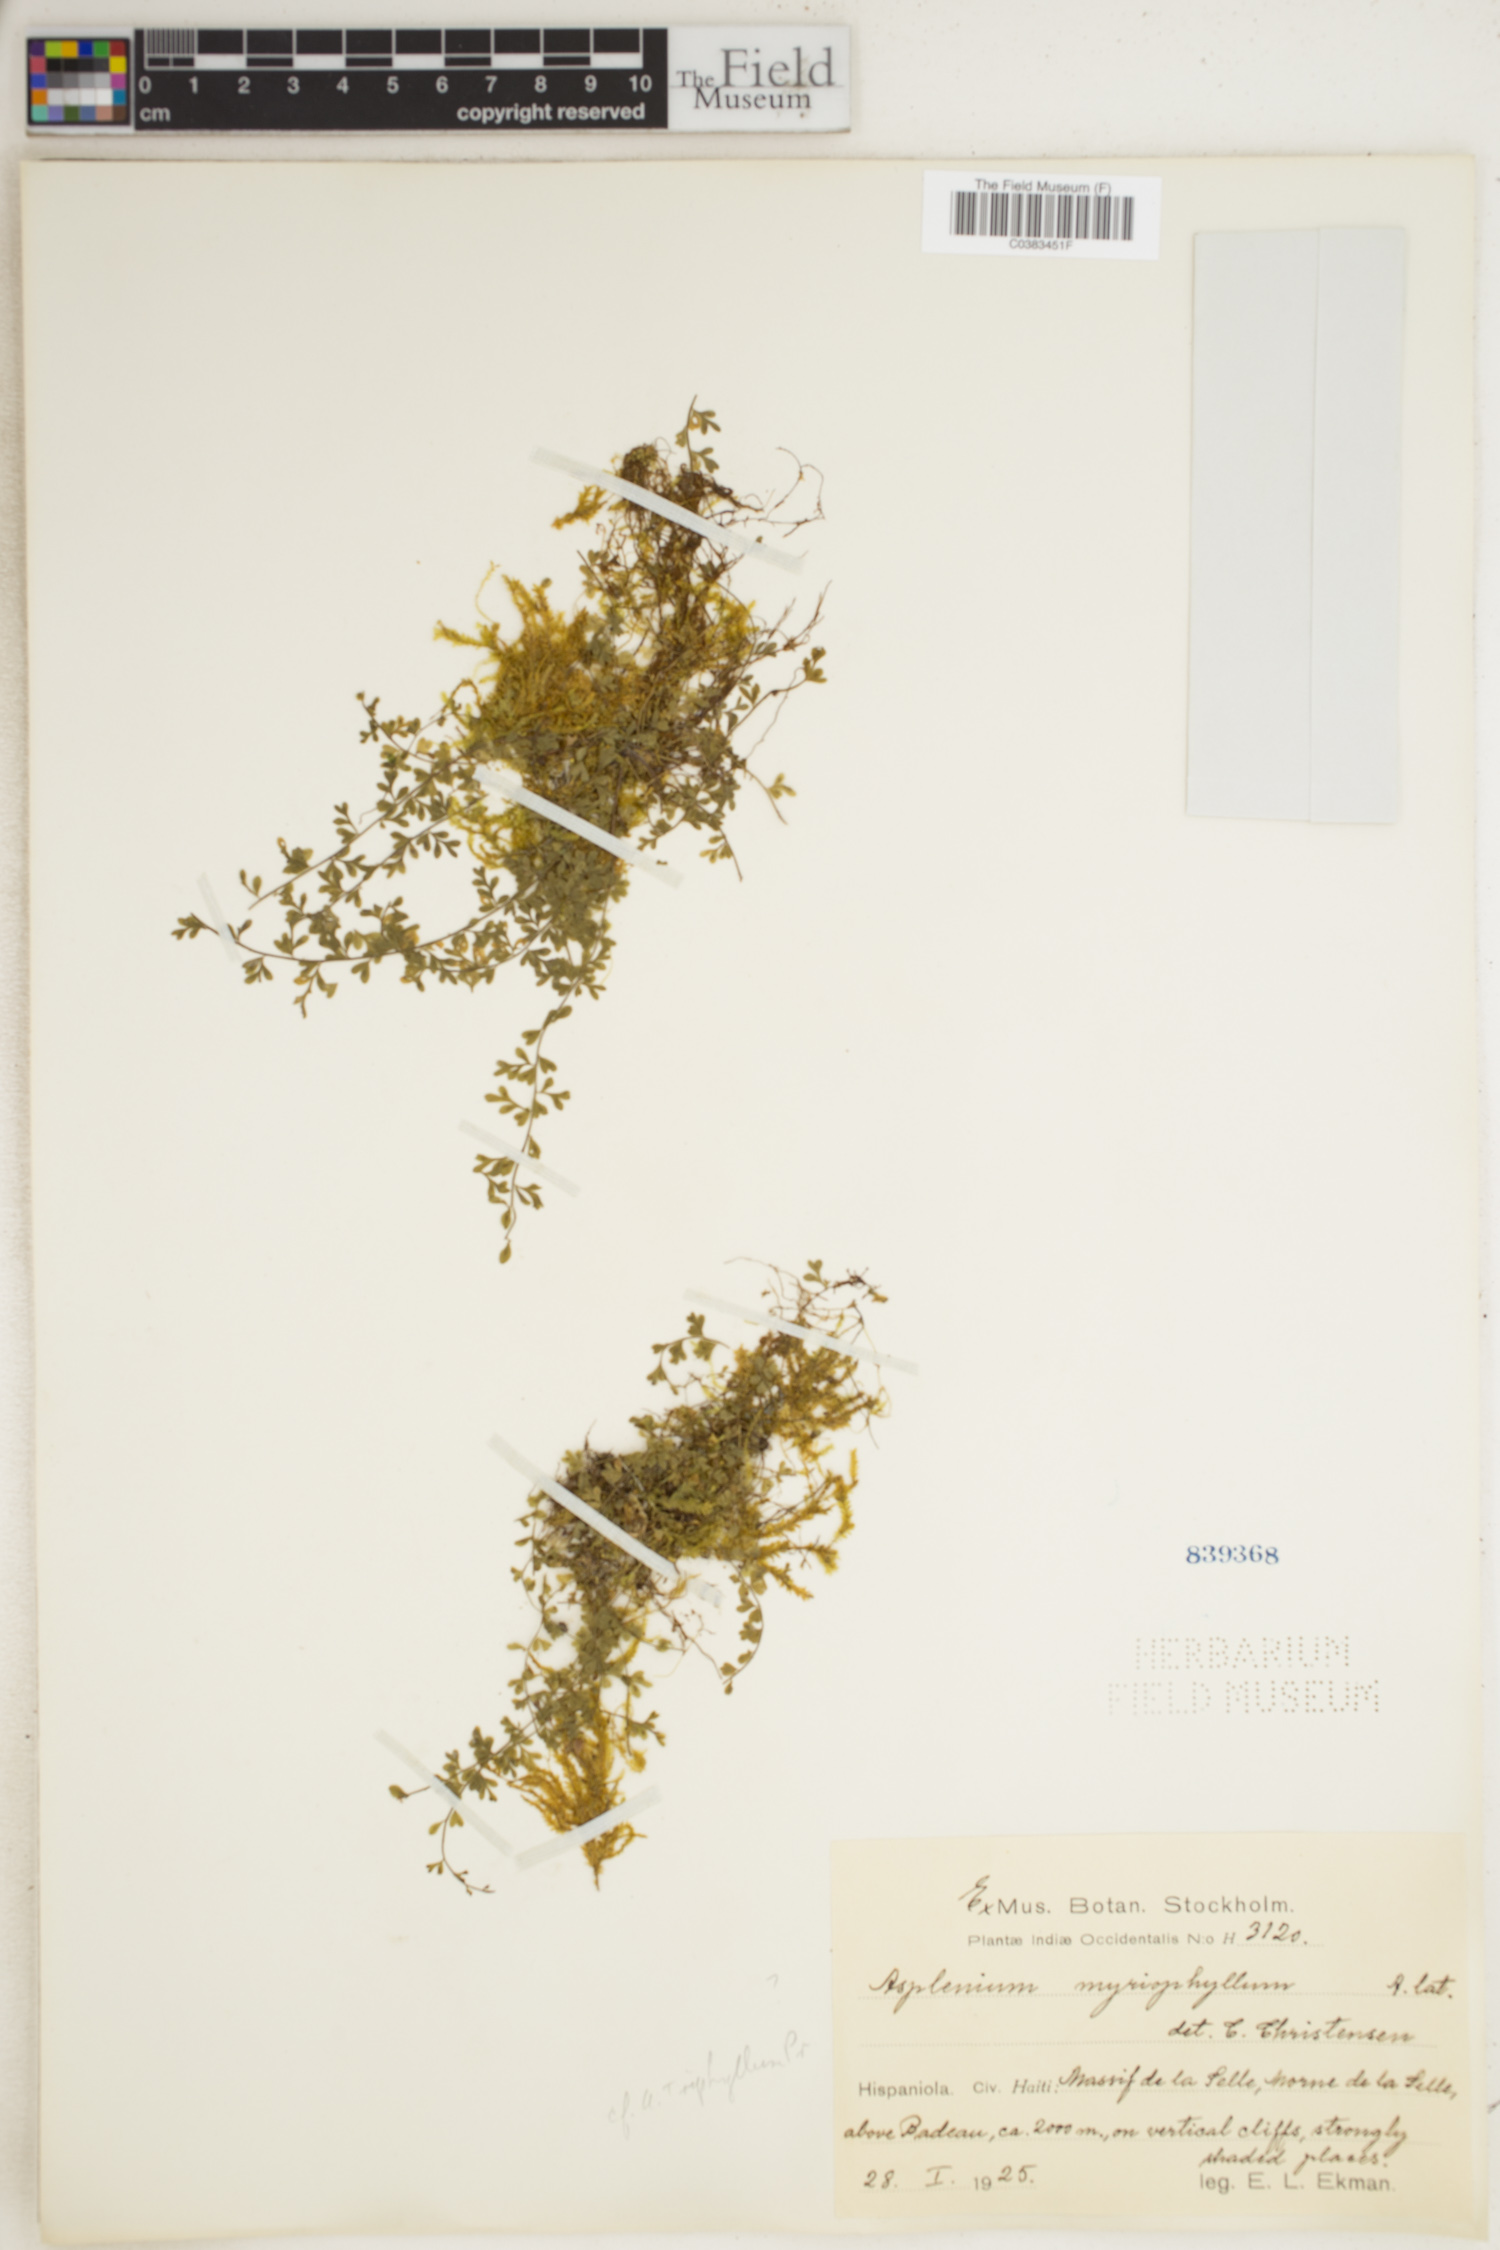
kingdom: Plantae
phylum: Tracheophyta
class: Polypodiopsida
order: Polypodiales
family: Aspleniaceae
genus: Asplenium
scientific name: Asplenium myriophyllum
